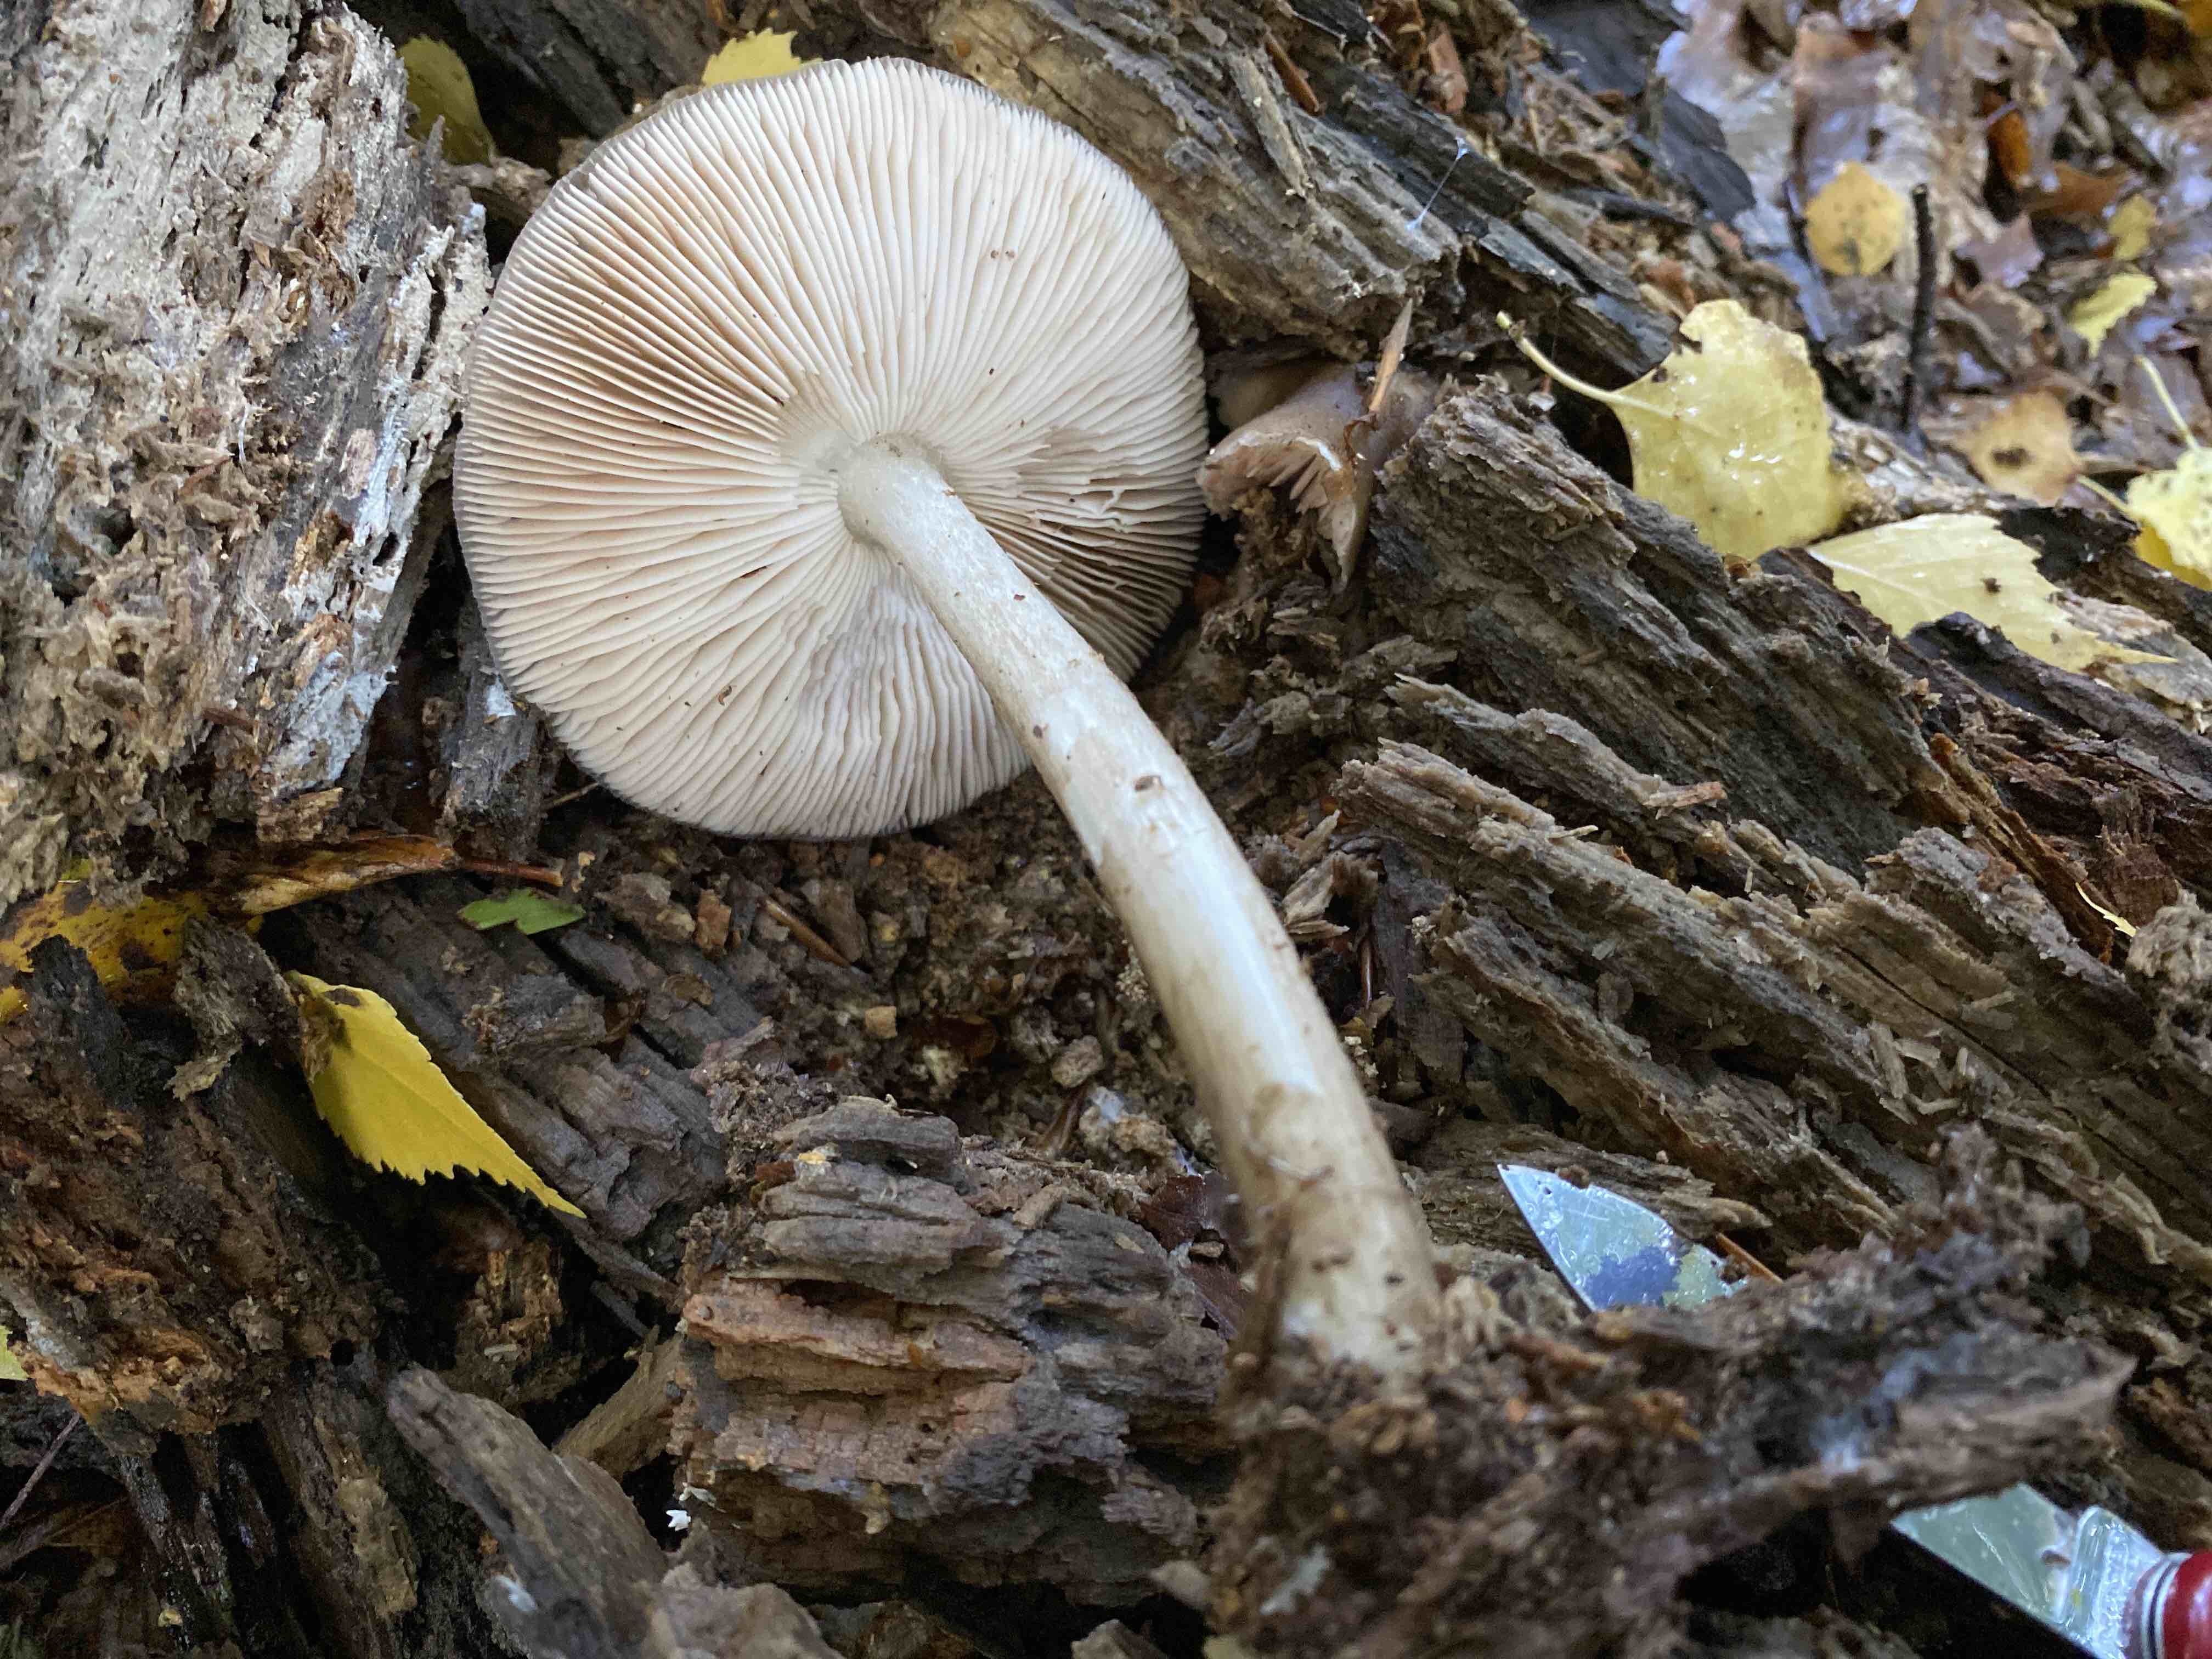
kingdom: Fungi
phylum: Basidiomycota
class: Agaricomycetes
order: Agaricales
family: Pluteaceae
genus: Pluteus
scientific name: Pluteus cervinus
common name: sodfarvet skærmhat
